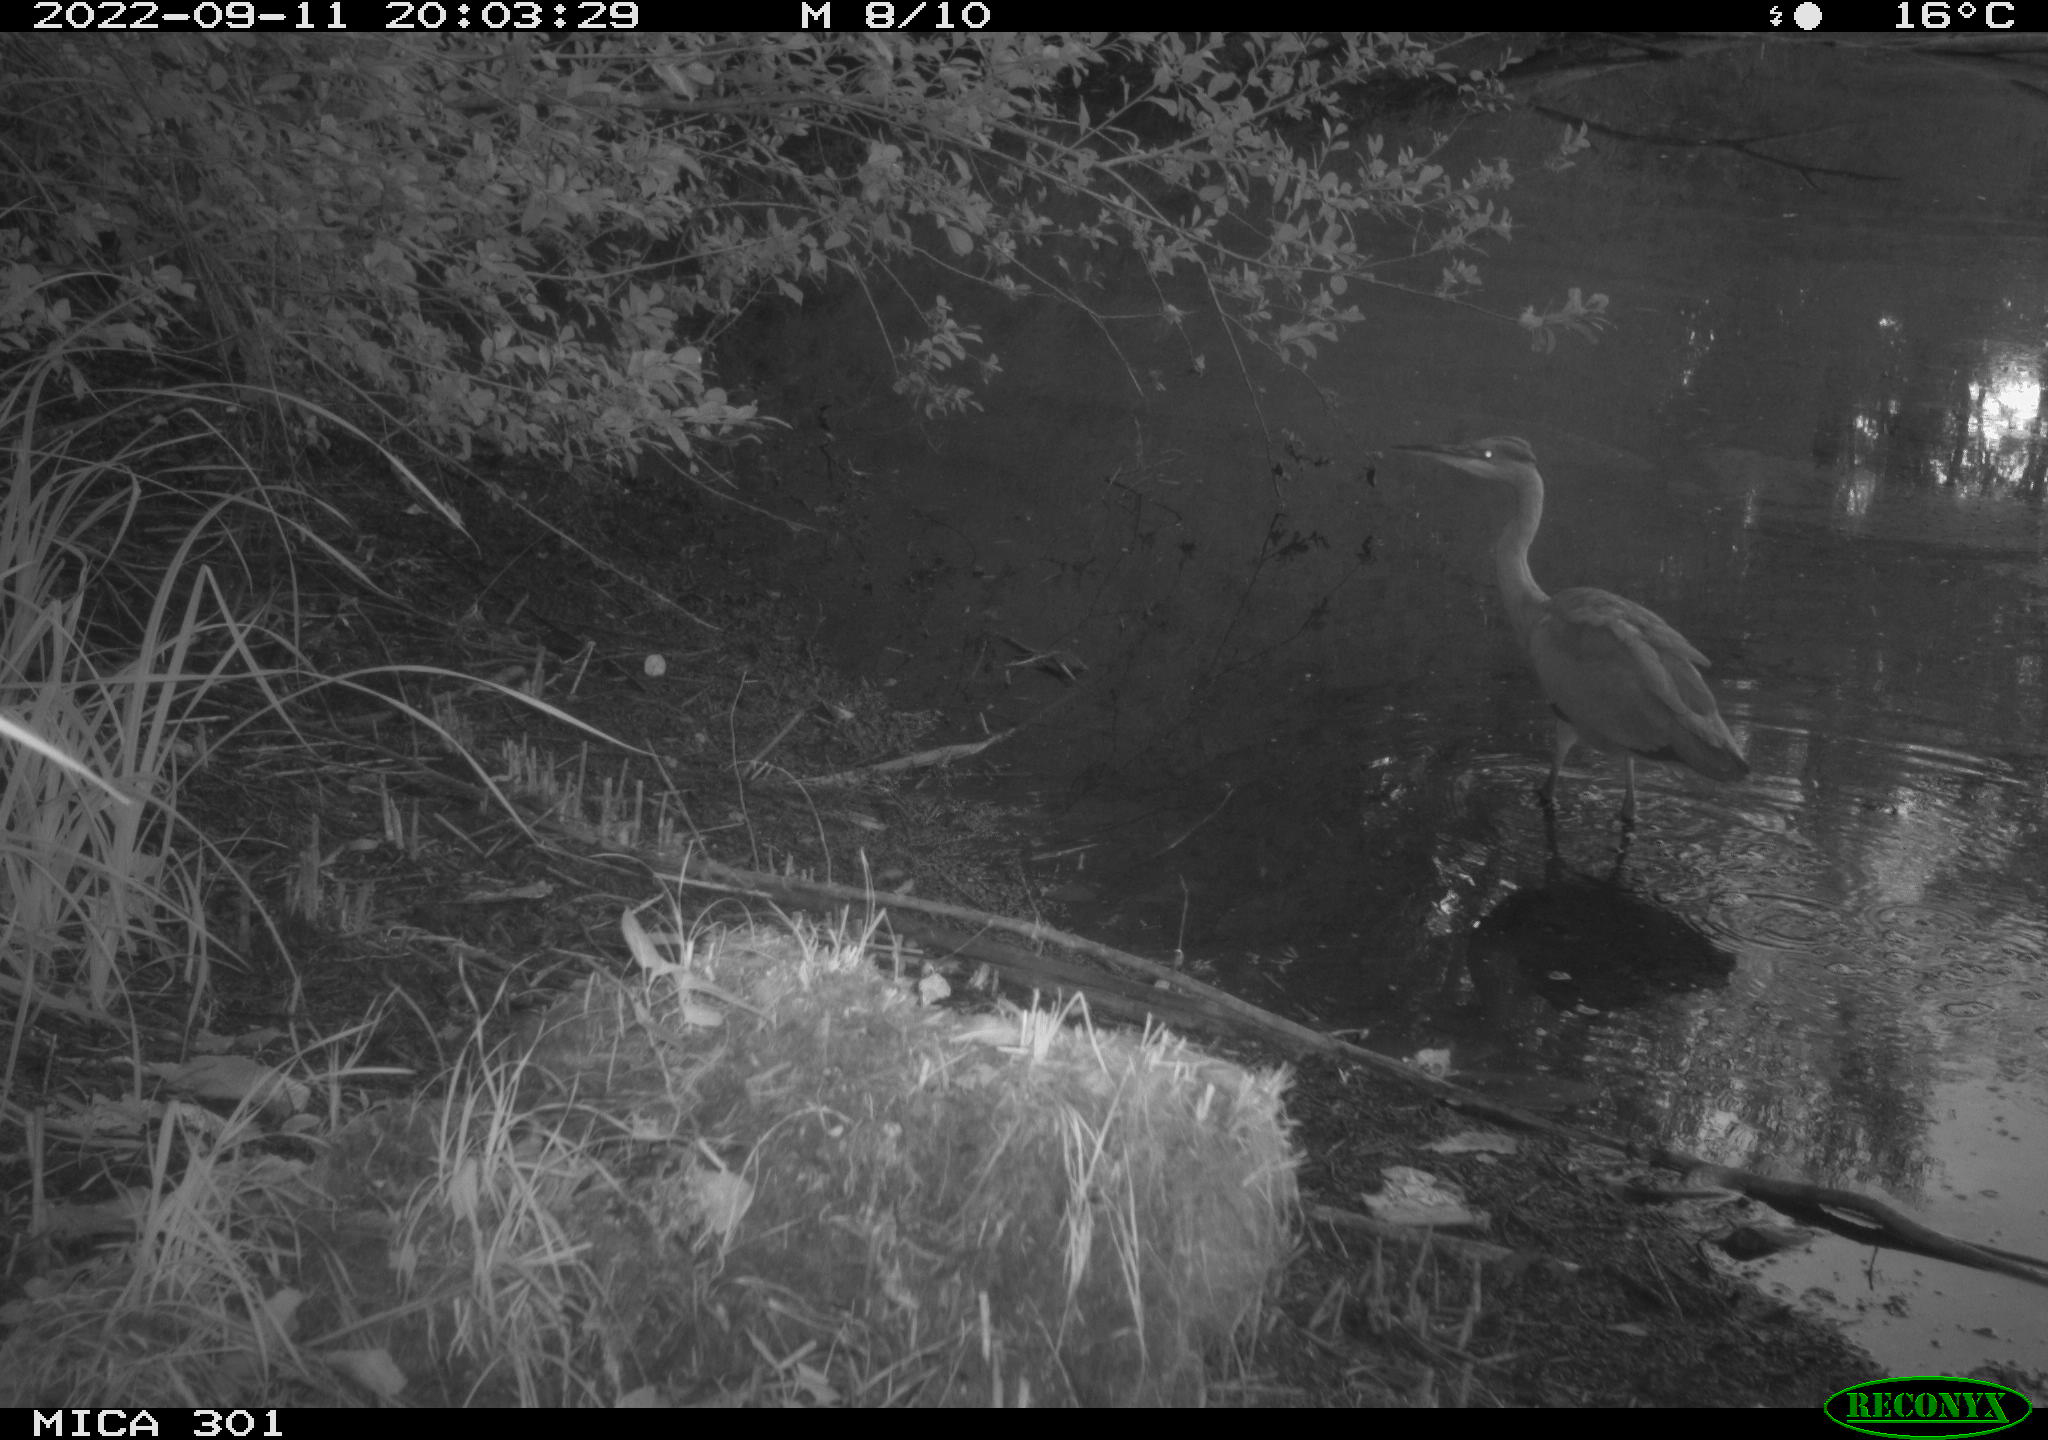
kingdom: Animalia
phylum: Chordata
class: Aves
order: Pelecaniformes
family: Ardeidae
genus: Ardea
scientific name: Ardea cinerea
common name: Grey heron
